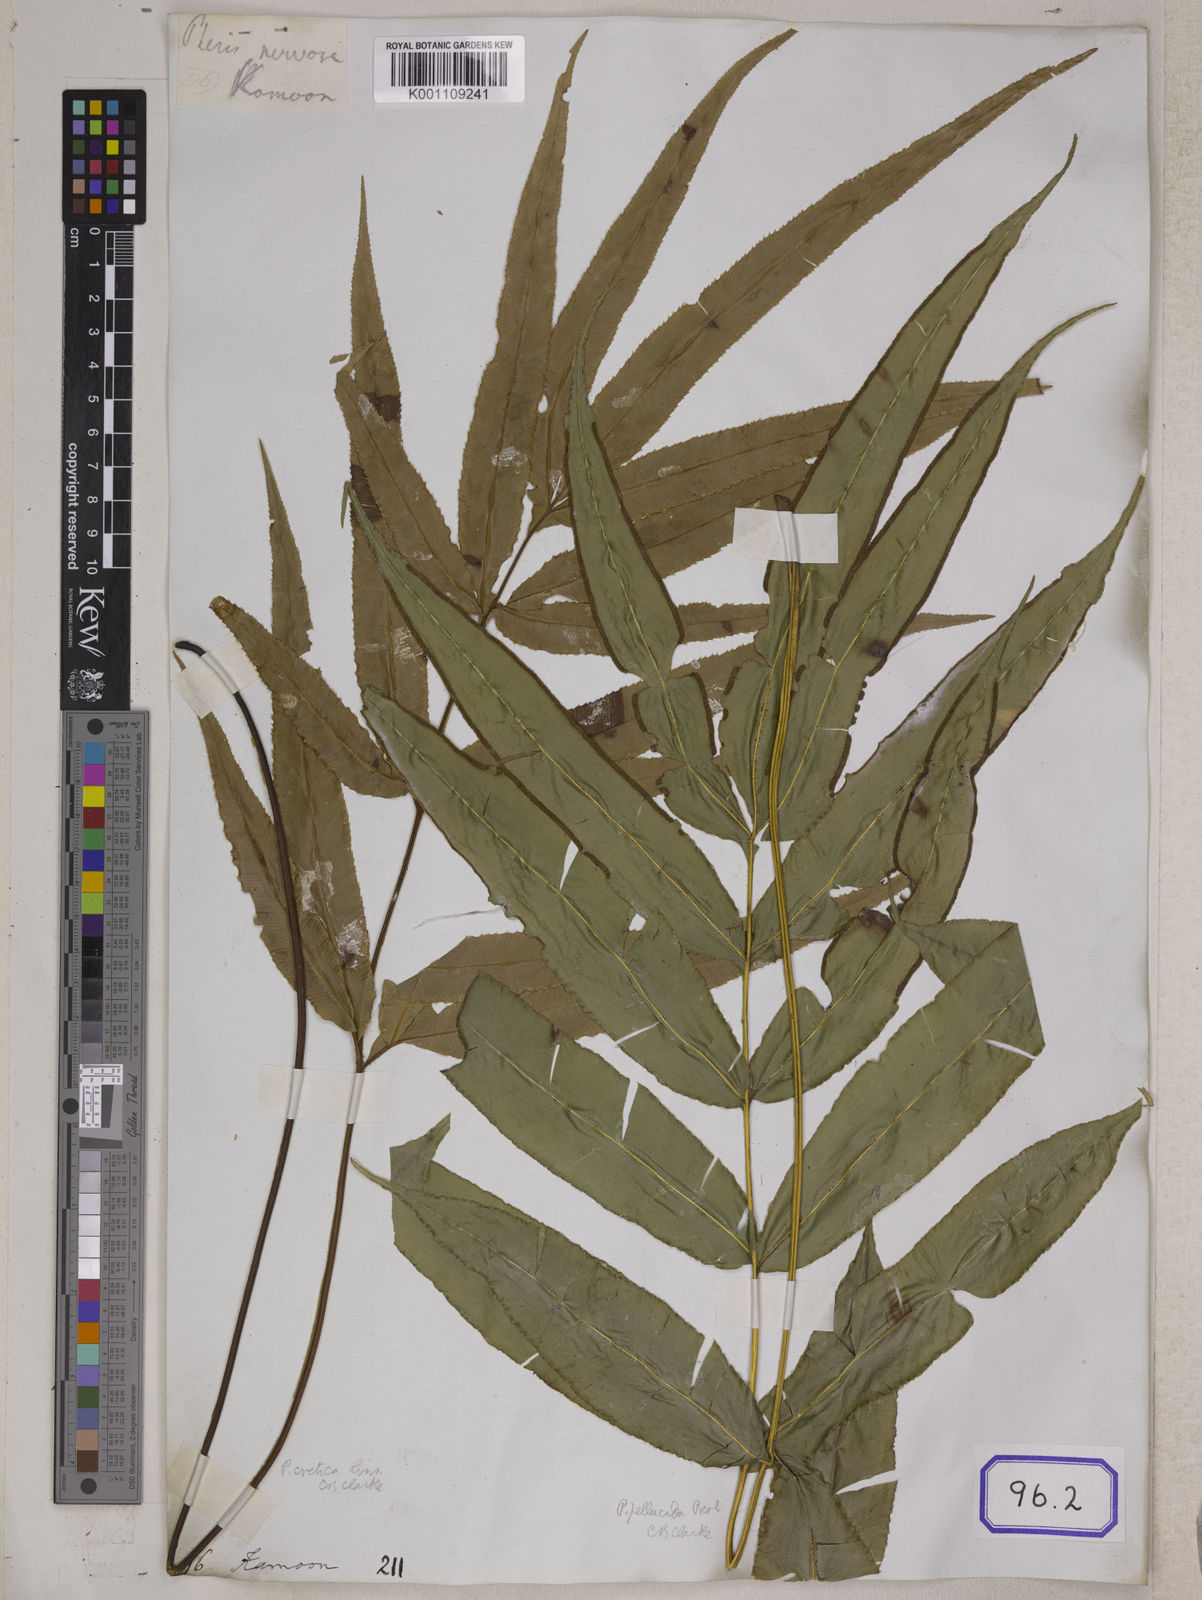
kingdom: Plantae
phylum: Tracheophyta
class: Polypodiopsida
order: Polypodiales
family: Pteridaceae
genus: Pteris
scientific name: Pteris cretica
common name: Ribbon fern
